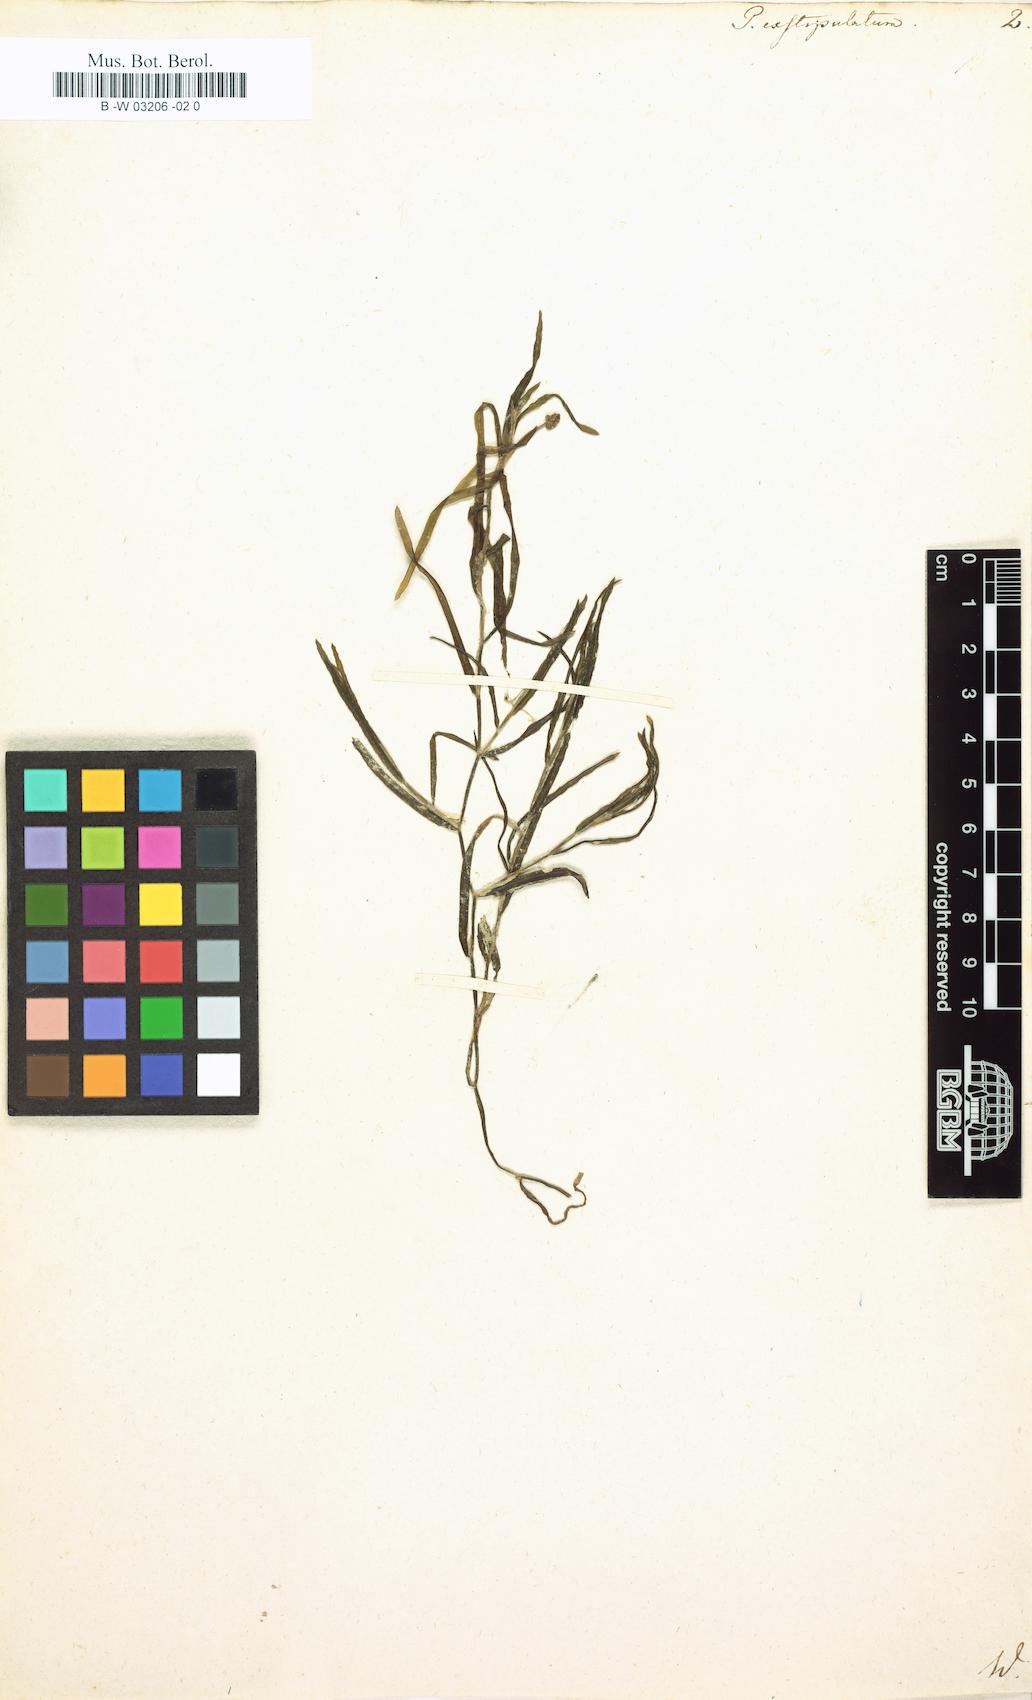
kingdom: Plantae
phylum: Tracheophyta
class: Liliopsida
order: Alismatales
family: Potamogetonaceae
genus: Potamogeton
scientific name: Potamogeton exstipulatus
